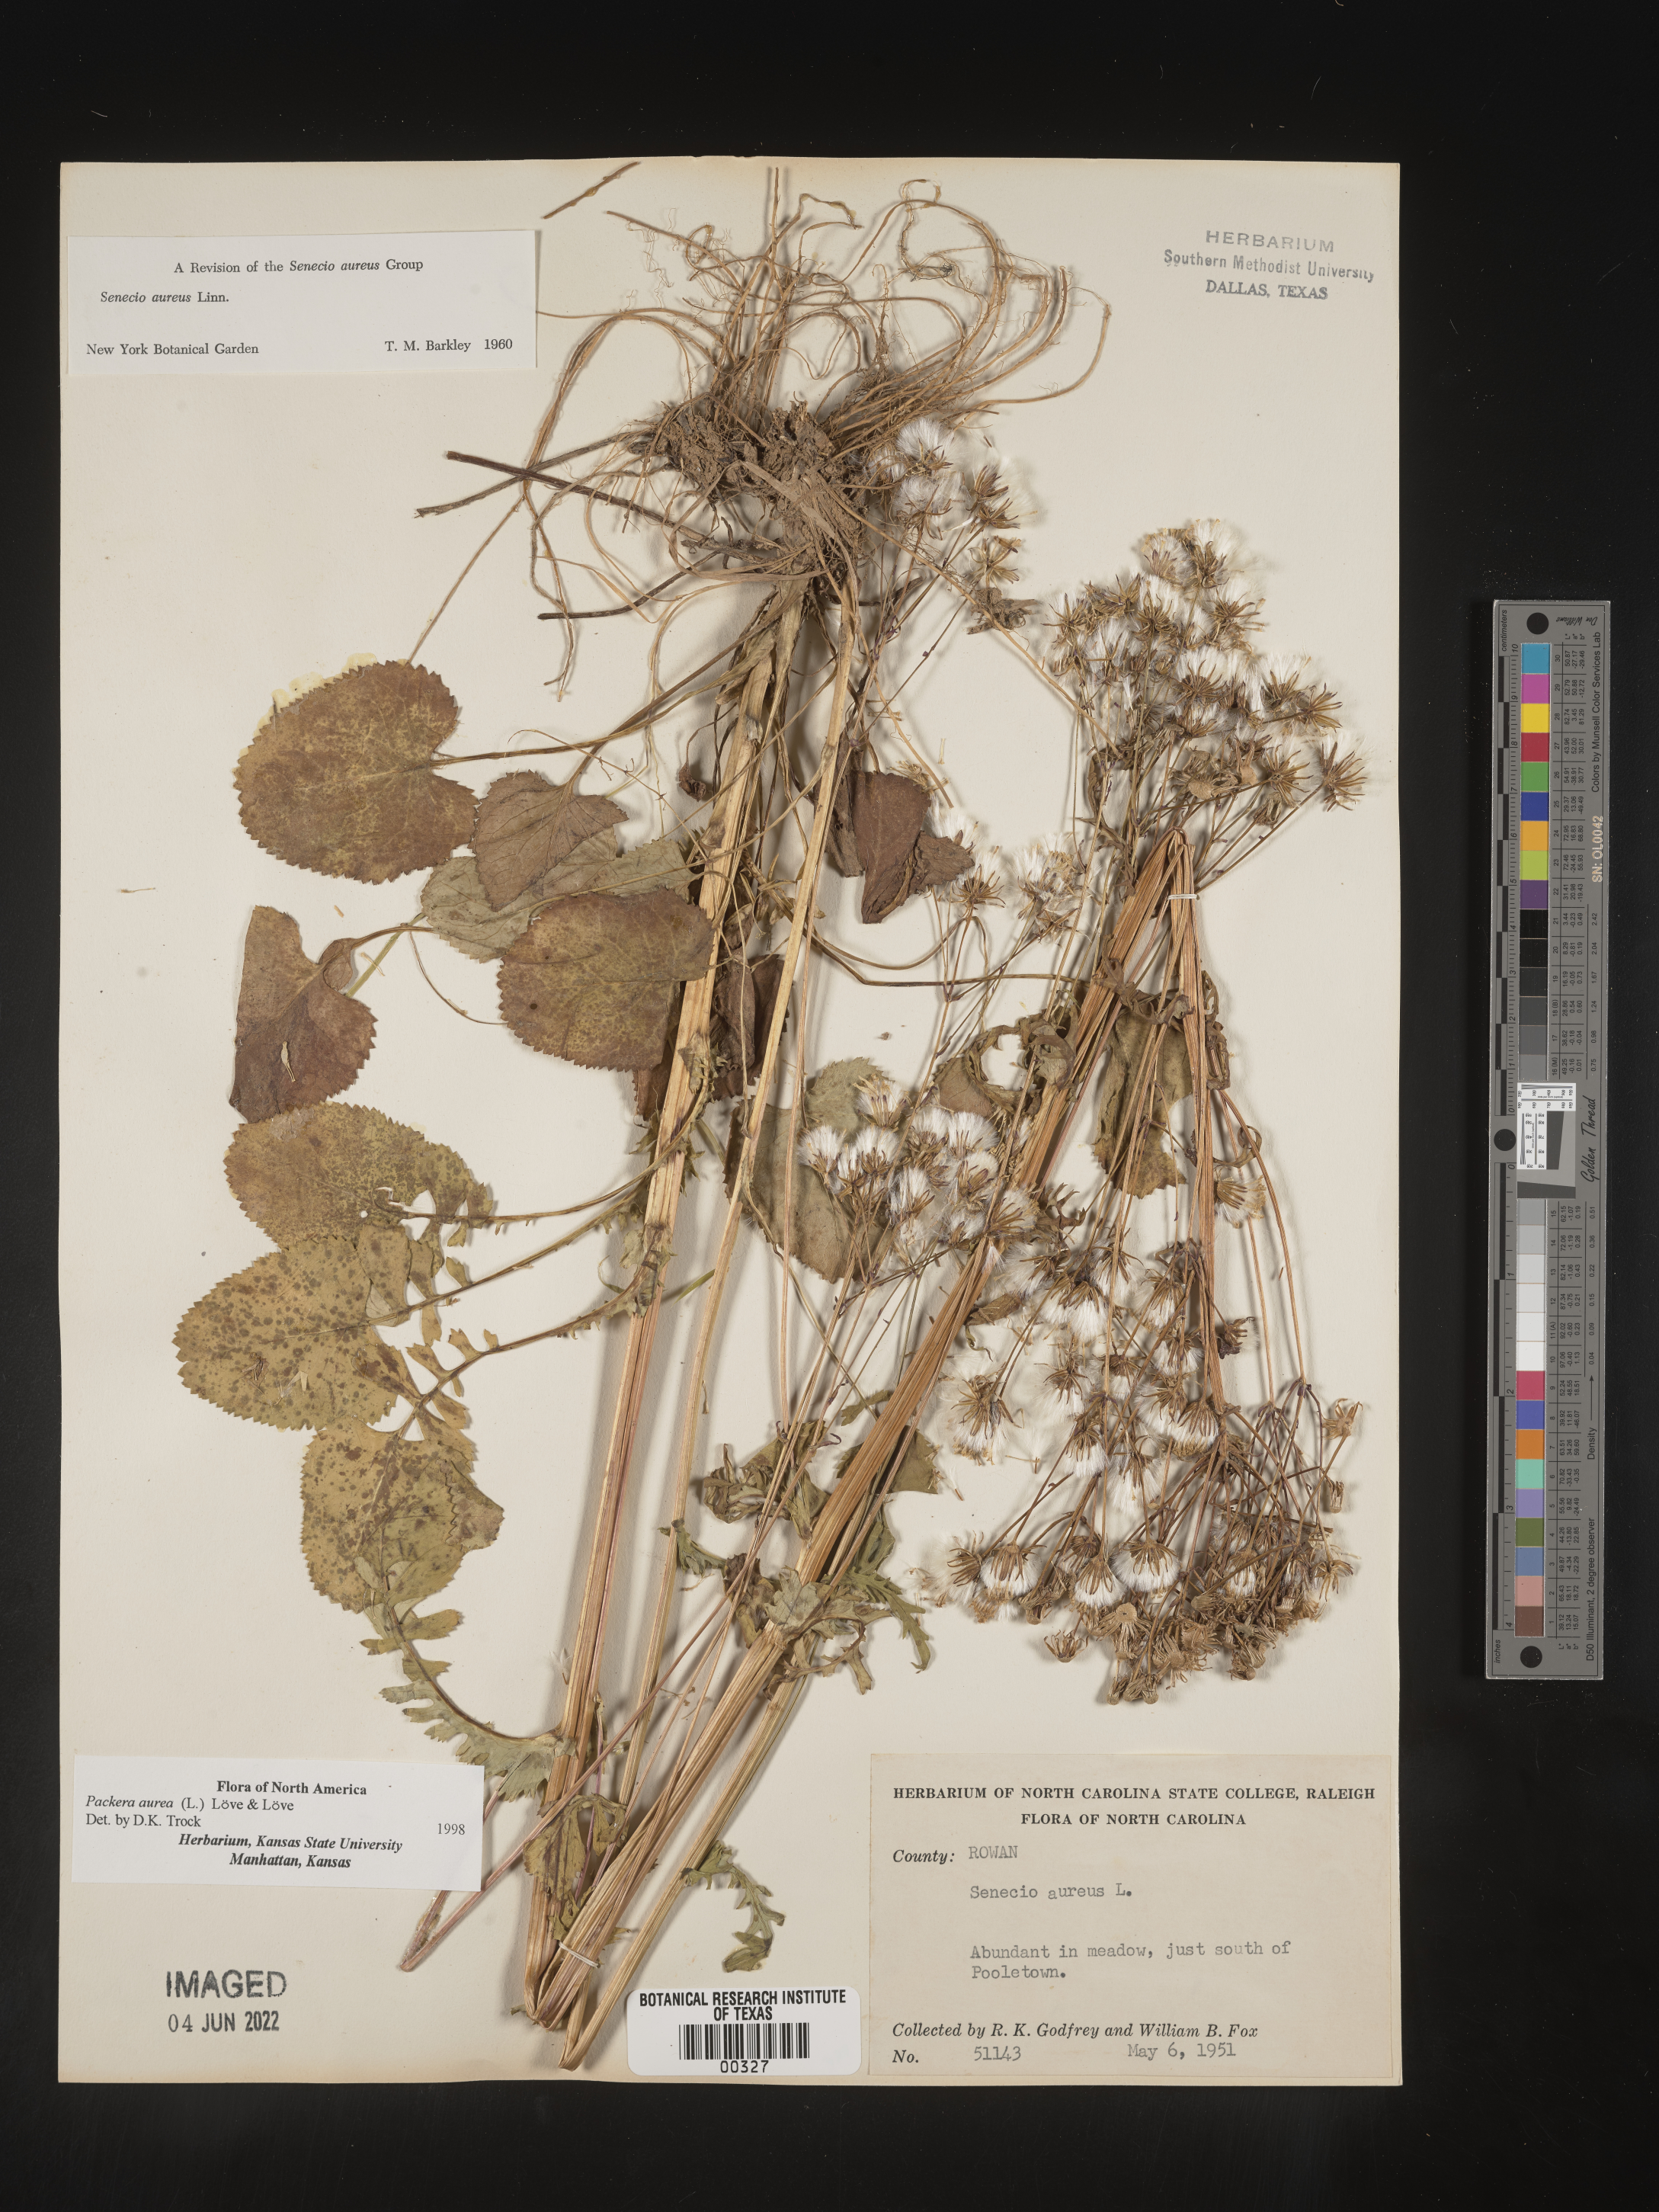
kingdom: Plantae
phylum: Tracheophyta
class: Magnoliopsida
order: Asterales
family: Asteraceae
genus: Packera
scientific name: Packera aurea
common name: Golden groundsel
